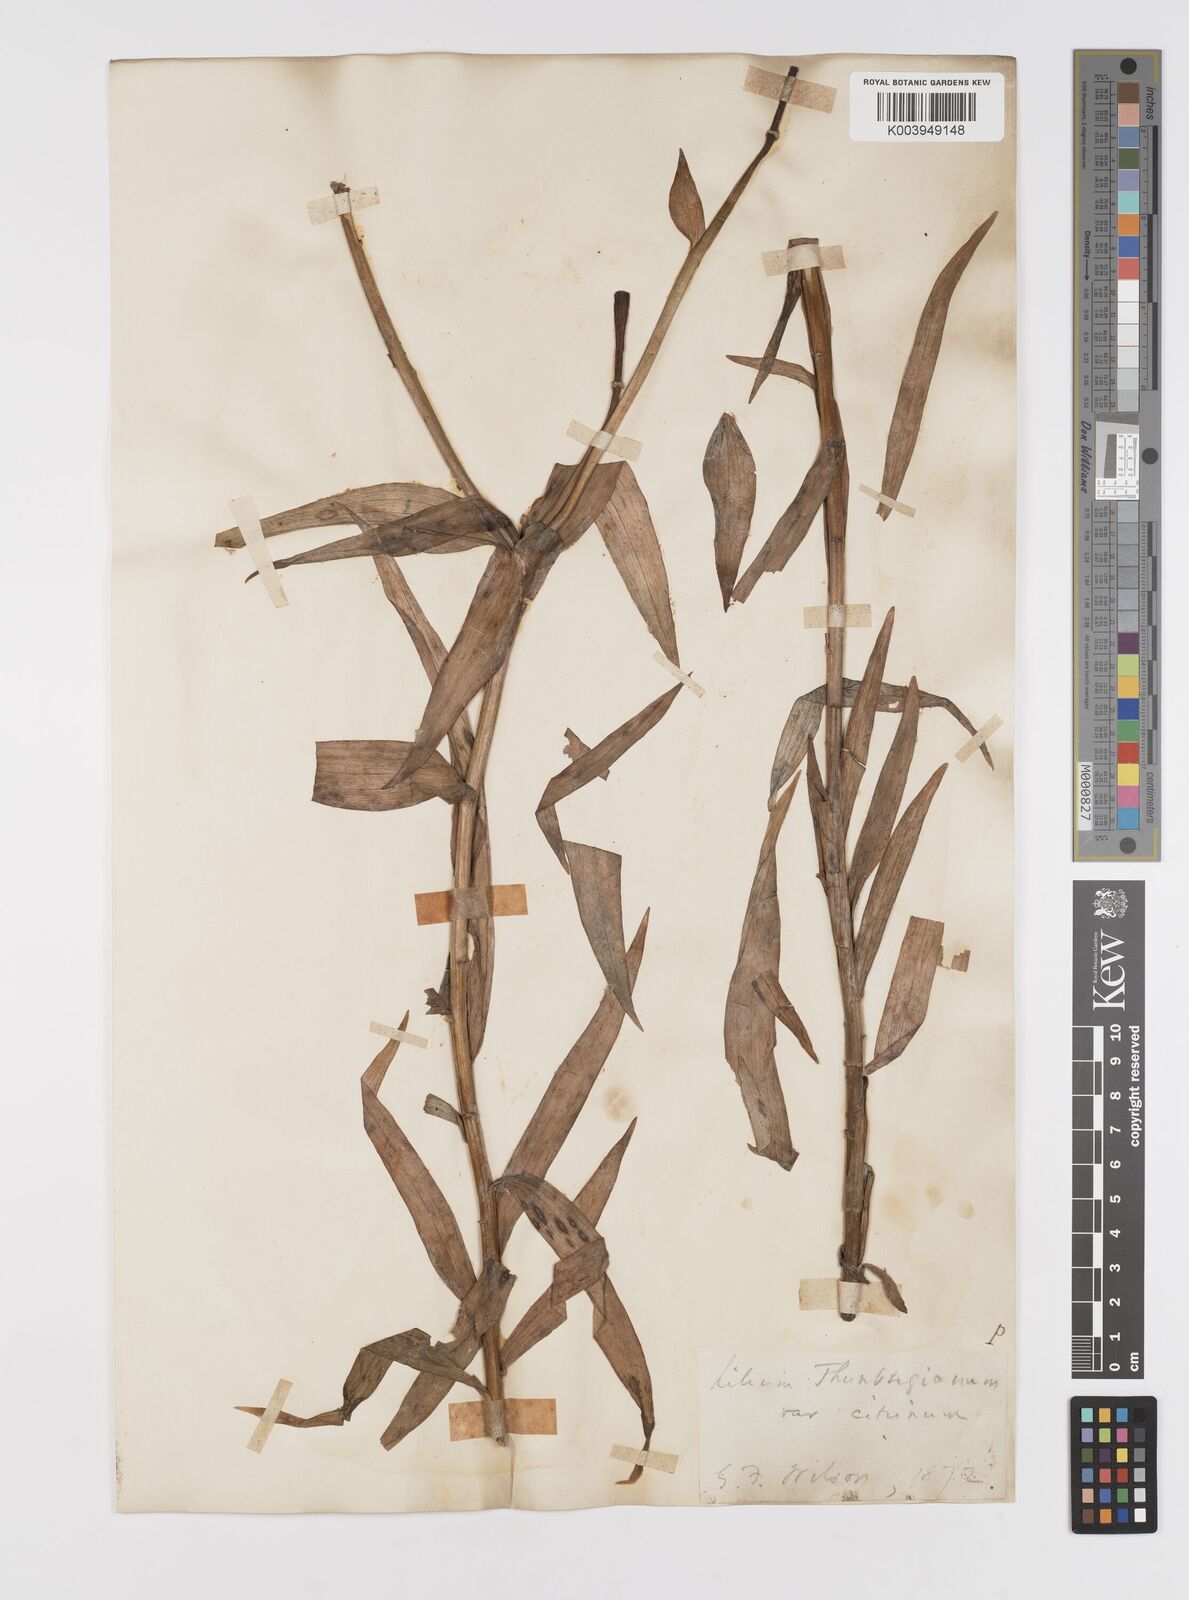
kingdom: Plantae
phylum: Tracheophyta
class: Liliopsida
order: Liliales
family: Liliaceae
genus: Lilium
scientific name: Lilium pensylvanicum
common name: Candlestick lily
